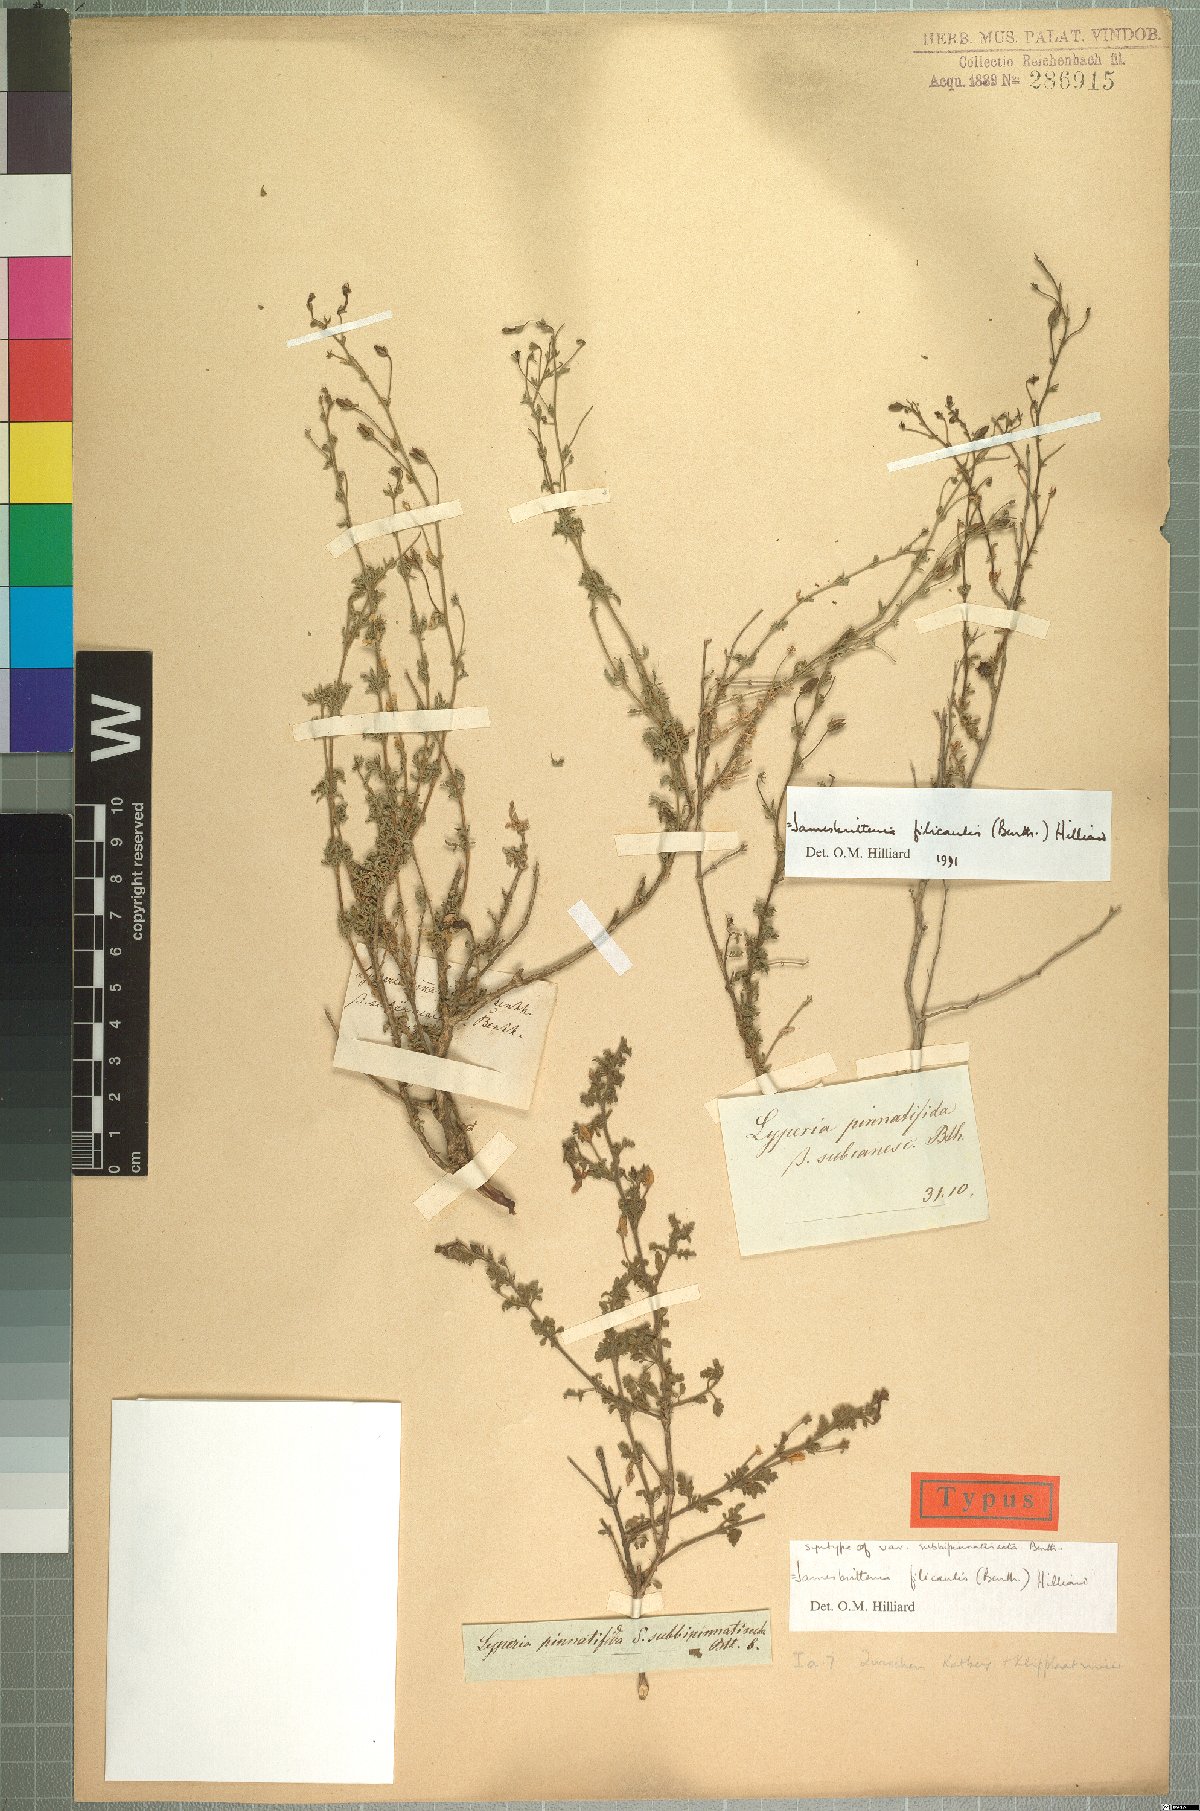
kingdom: Plantae
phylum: Tracheophyta
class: Magnoliopsida
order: Lamiales
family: Scrophulariaceae
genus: Jamesbrittenia
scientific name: Jamesbrittenia filicaulis
